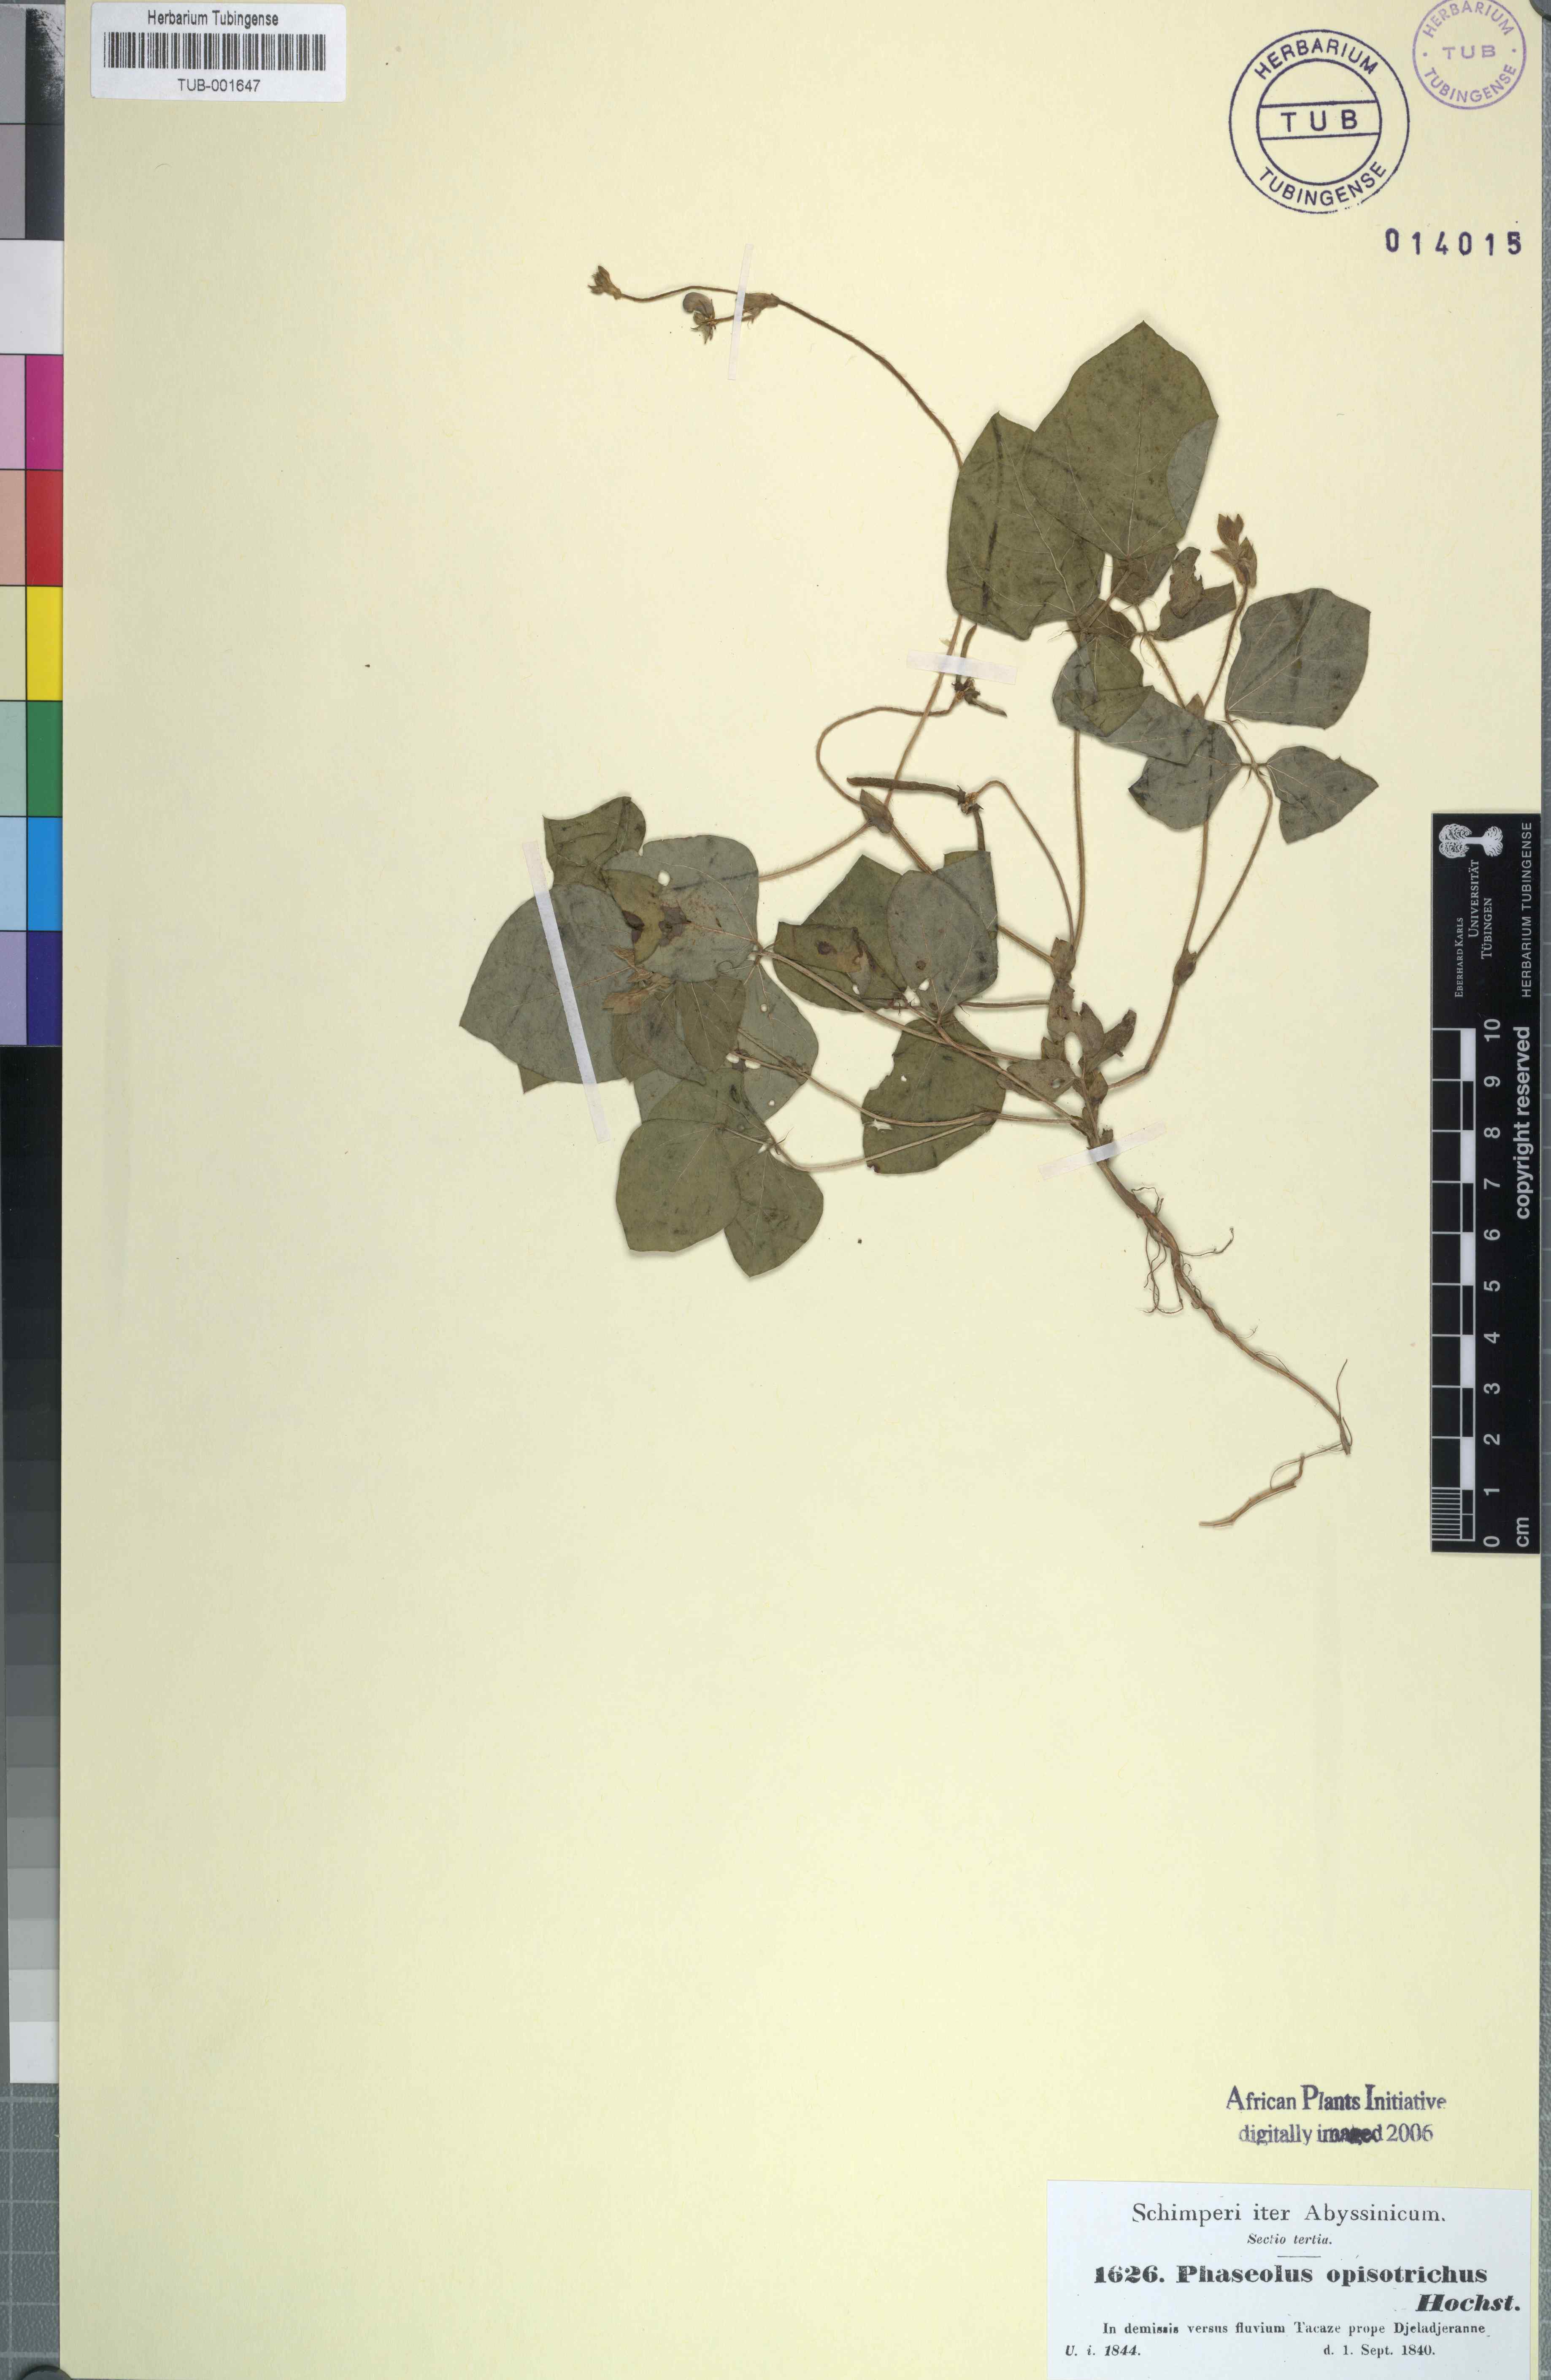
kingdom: Plantae
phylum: Tracheophyta
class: Magnoliopsida
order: Fabales
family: Fabaceae
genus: Vigna
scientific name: Vigna radiata
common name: Mung-bean
